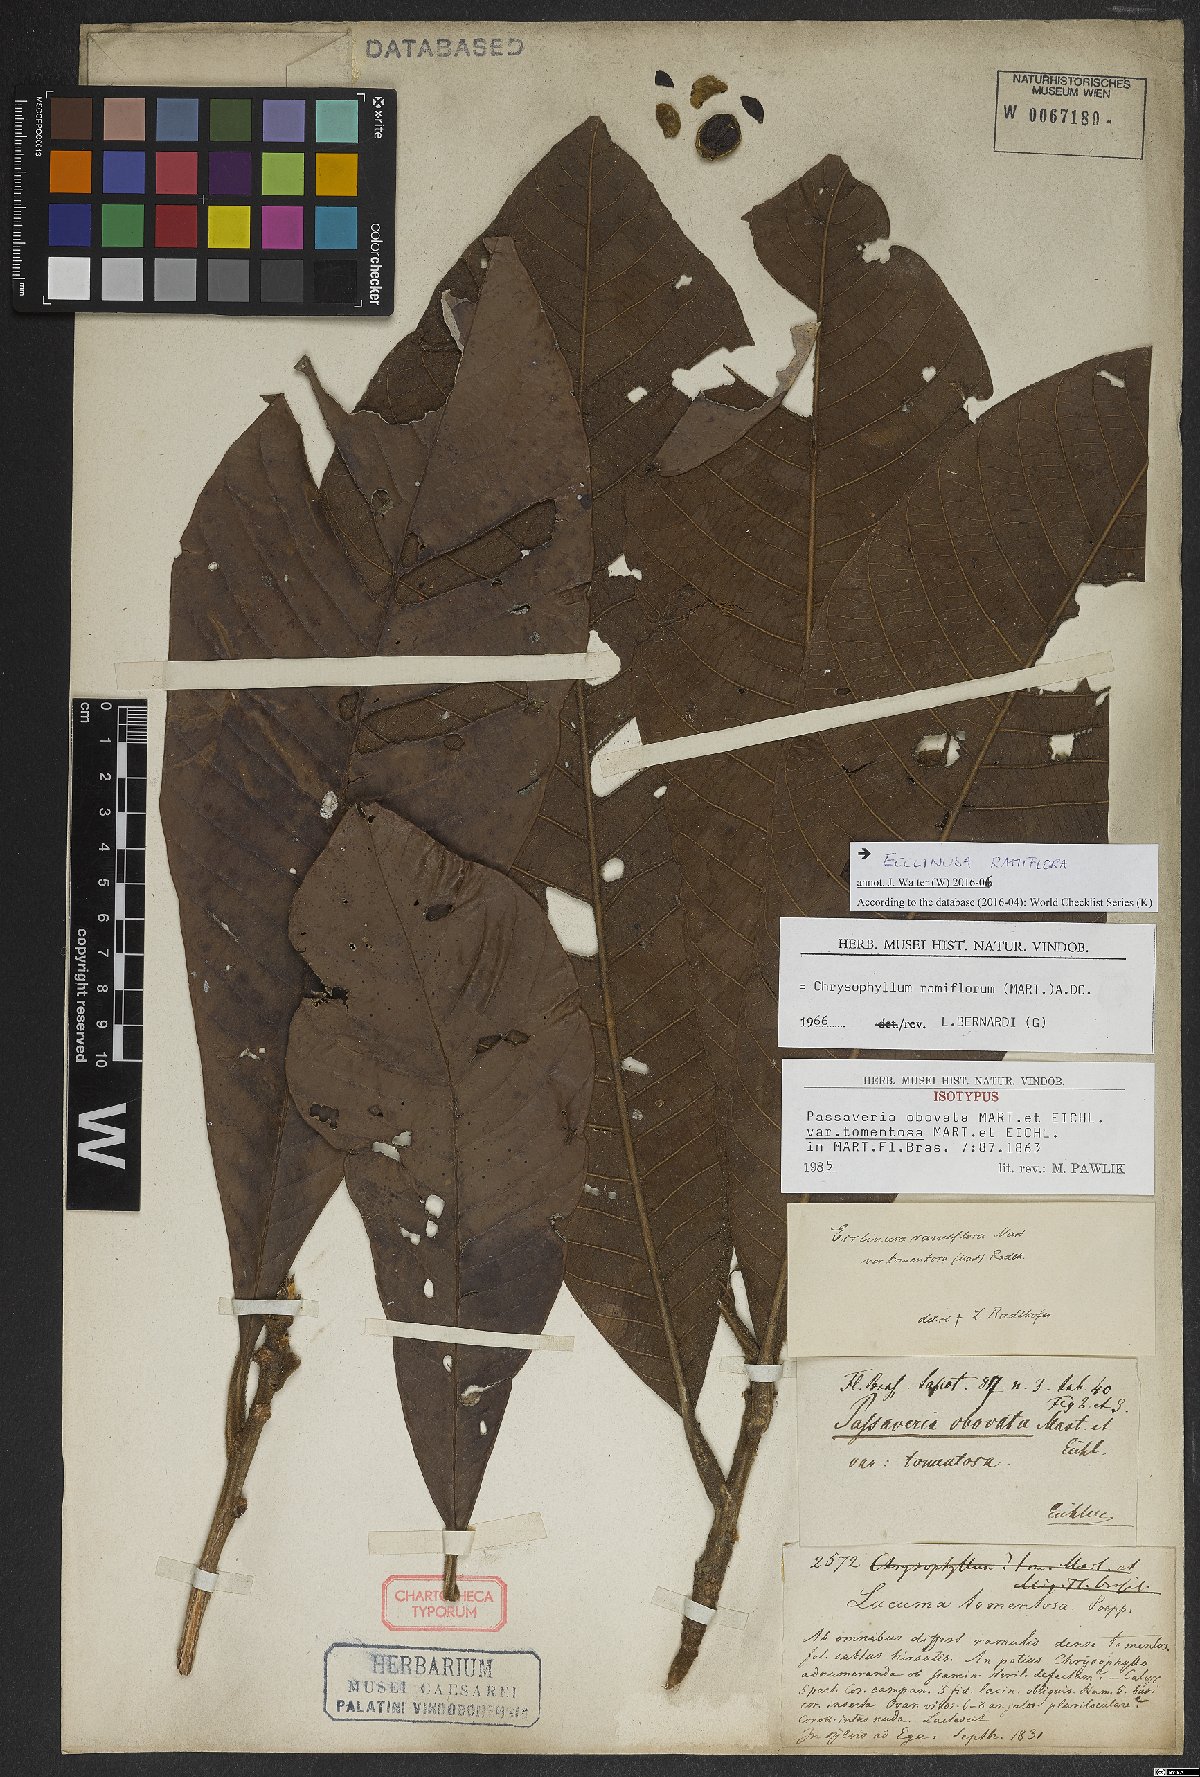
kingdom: Plantae
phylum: Tracheophyta
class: Magnoliopsida
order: Ericales
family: Sapotaceae
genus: Ecclinusa
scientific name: Ecclinusa ramiflora
